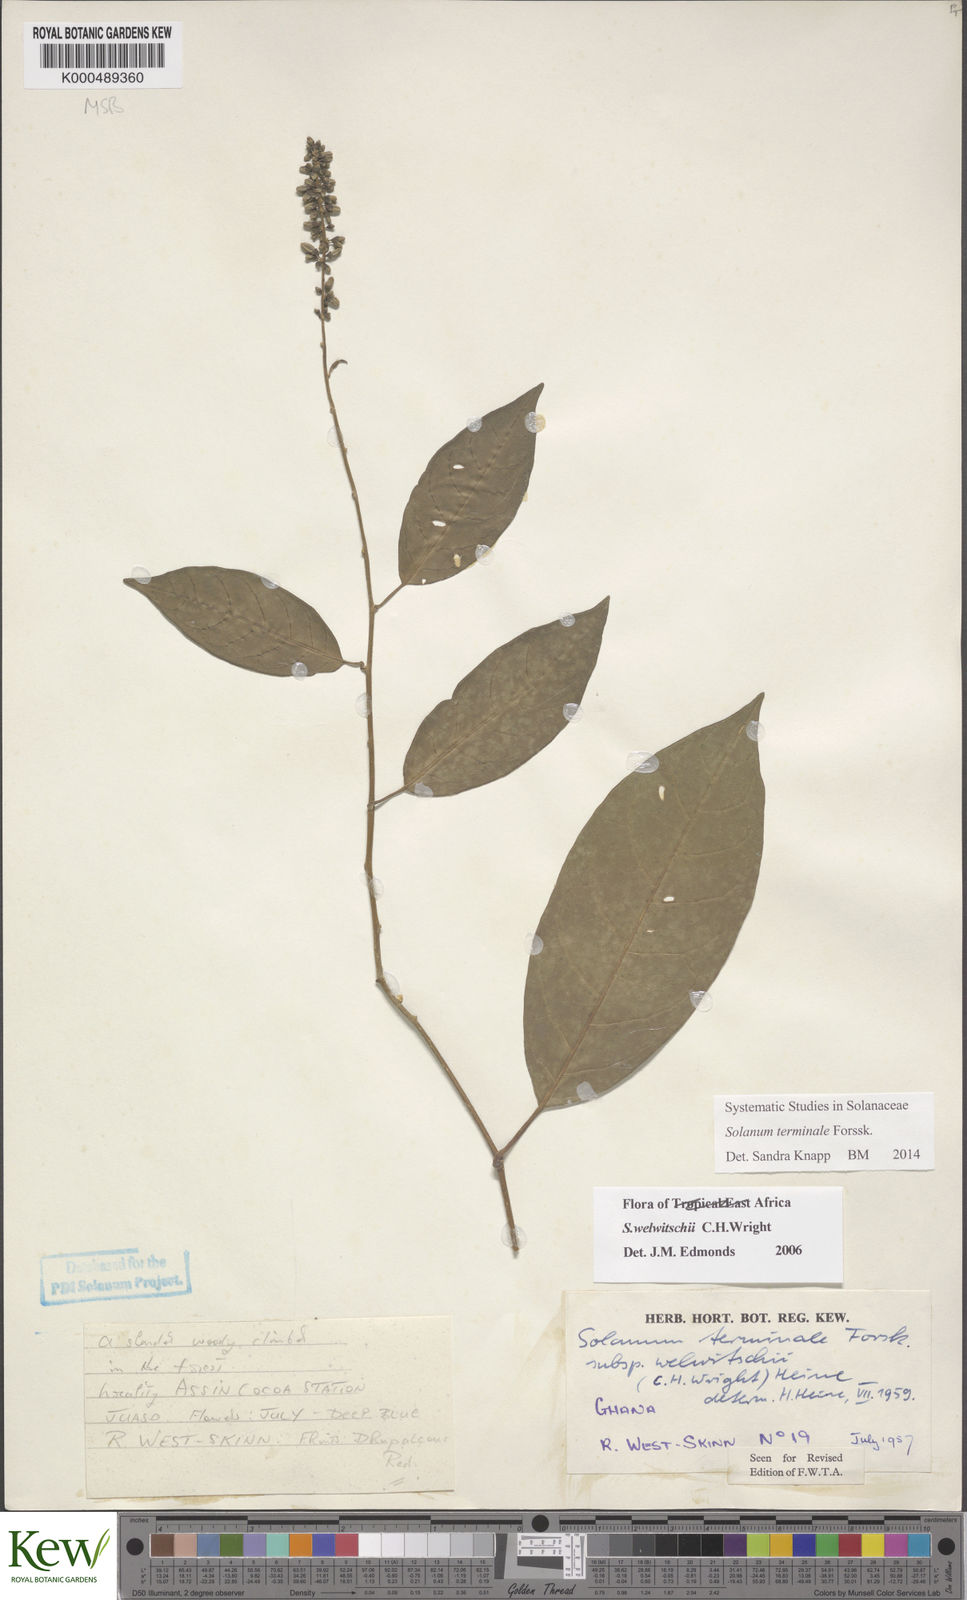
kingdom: Plantae
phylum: Tracheophyta
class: Magnoliopsida
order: Solanales
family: Solanaceae
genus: Solanum
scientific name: Solanum terminale
